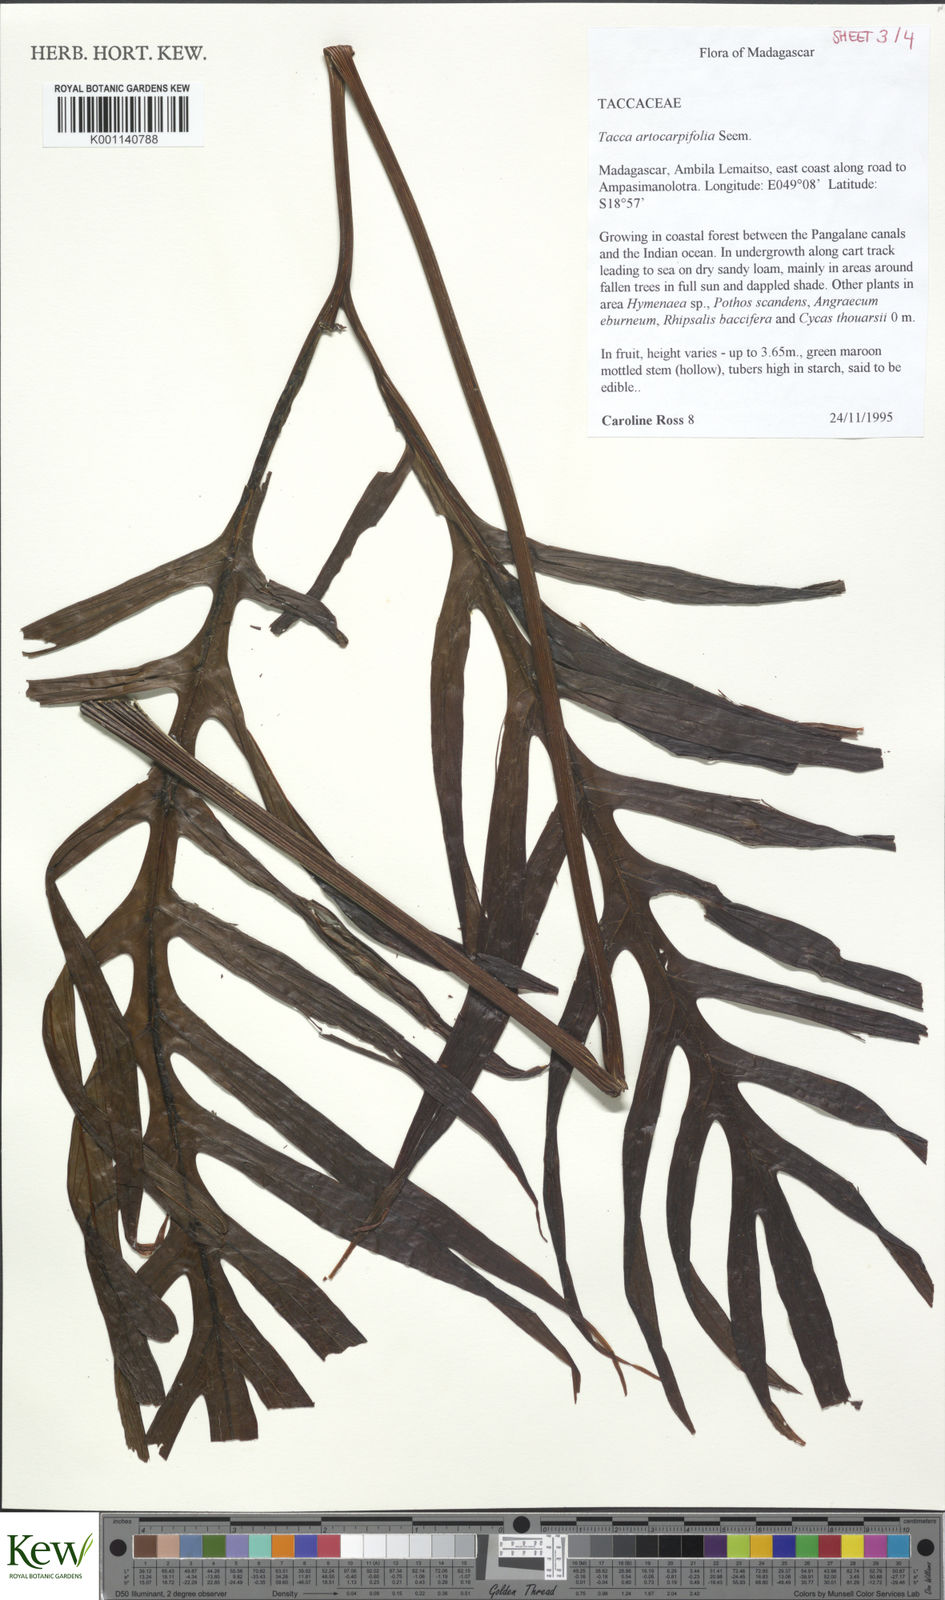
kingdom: Plantae
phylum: Tracheophyta
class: Liliopsida
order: Dioscoreales
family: Dioscoreaceae
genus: Tacca
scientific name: Tacca leontopetaloides
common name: Arrowroot
